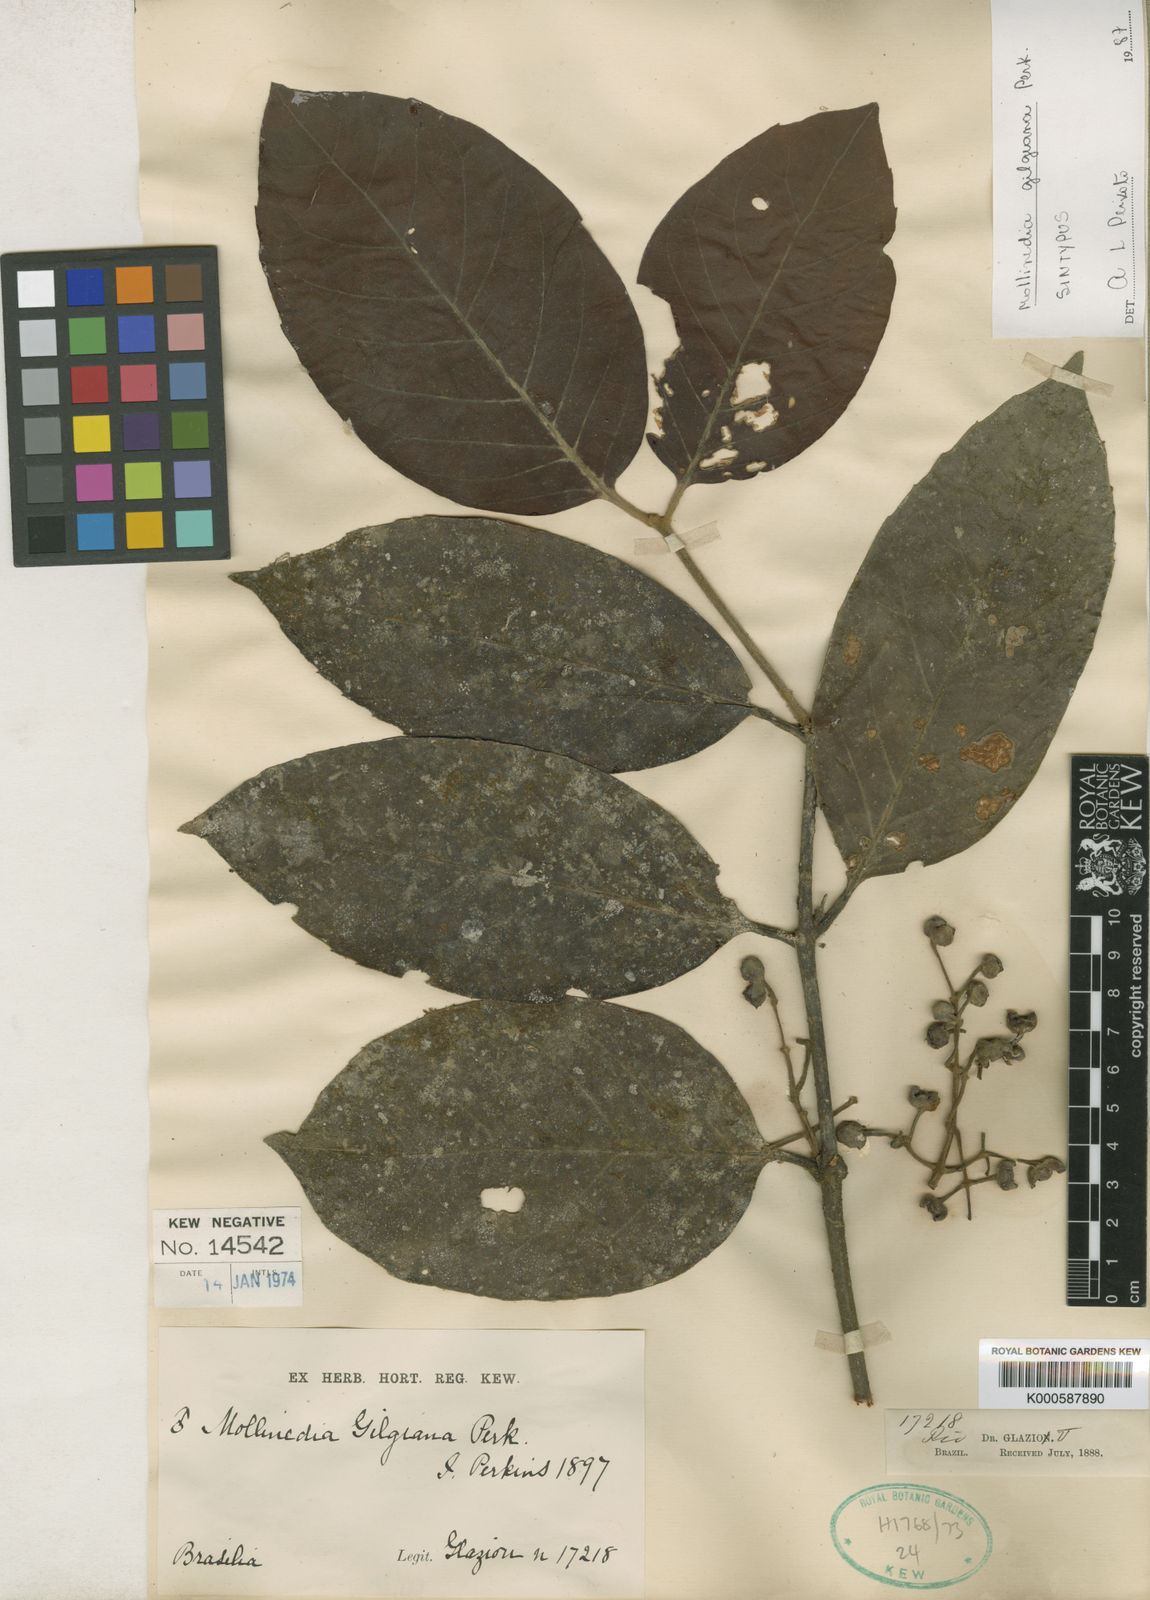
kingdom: Plantae
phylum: Tracheophyta
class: Magnoliopsida
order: Laurales
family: Monimiaceae
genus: Mollinedia
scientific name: Mollinedia gilgiana
